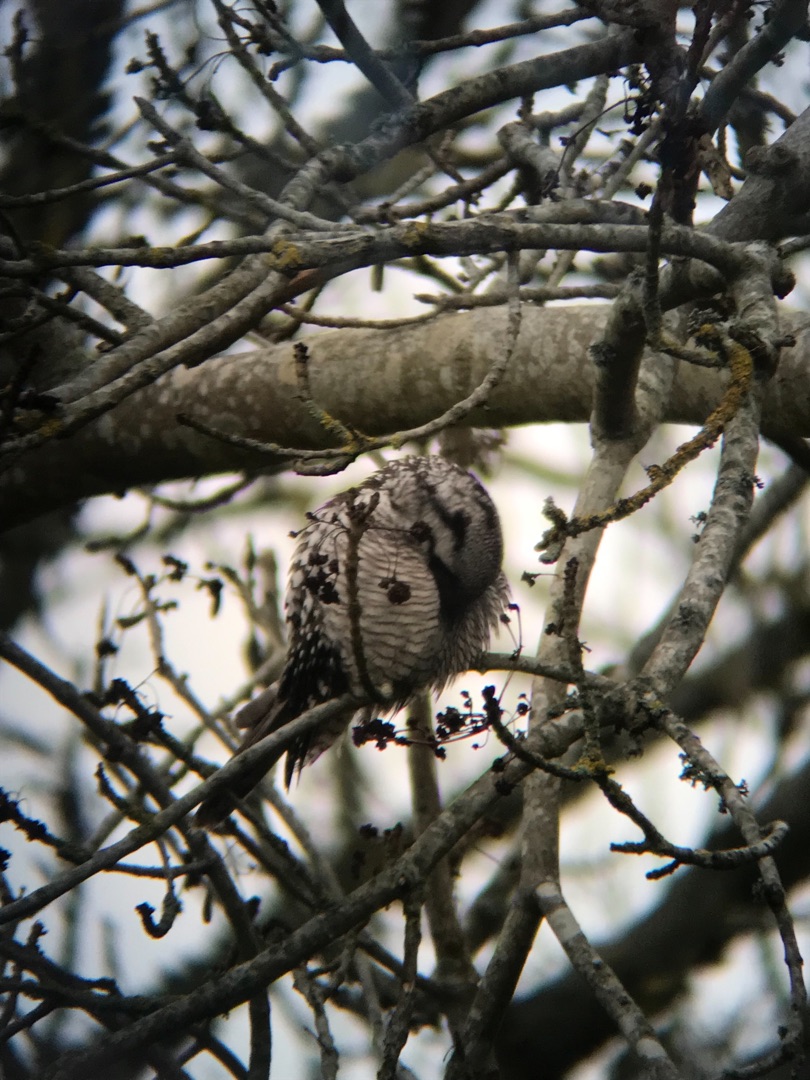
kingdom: Animalia
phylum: Chordata
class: Aves
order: Strigiformes
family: Strigidae
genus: Surnia
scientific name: Surnia ulula
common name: Høgeugle
